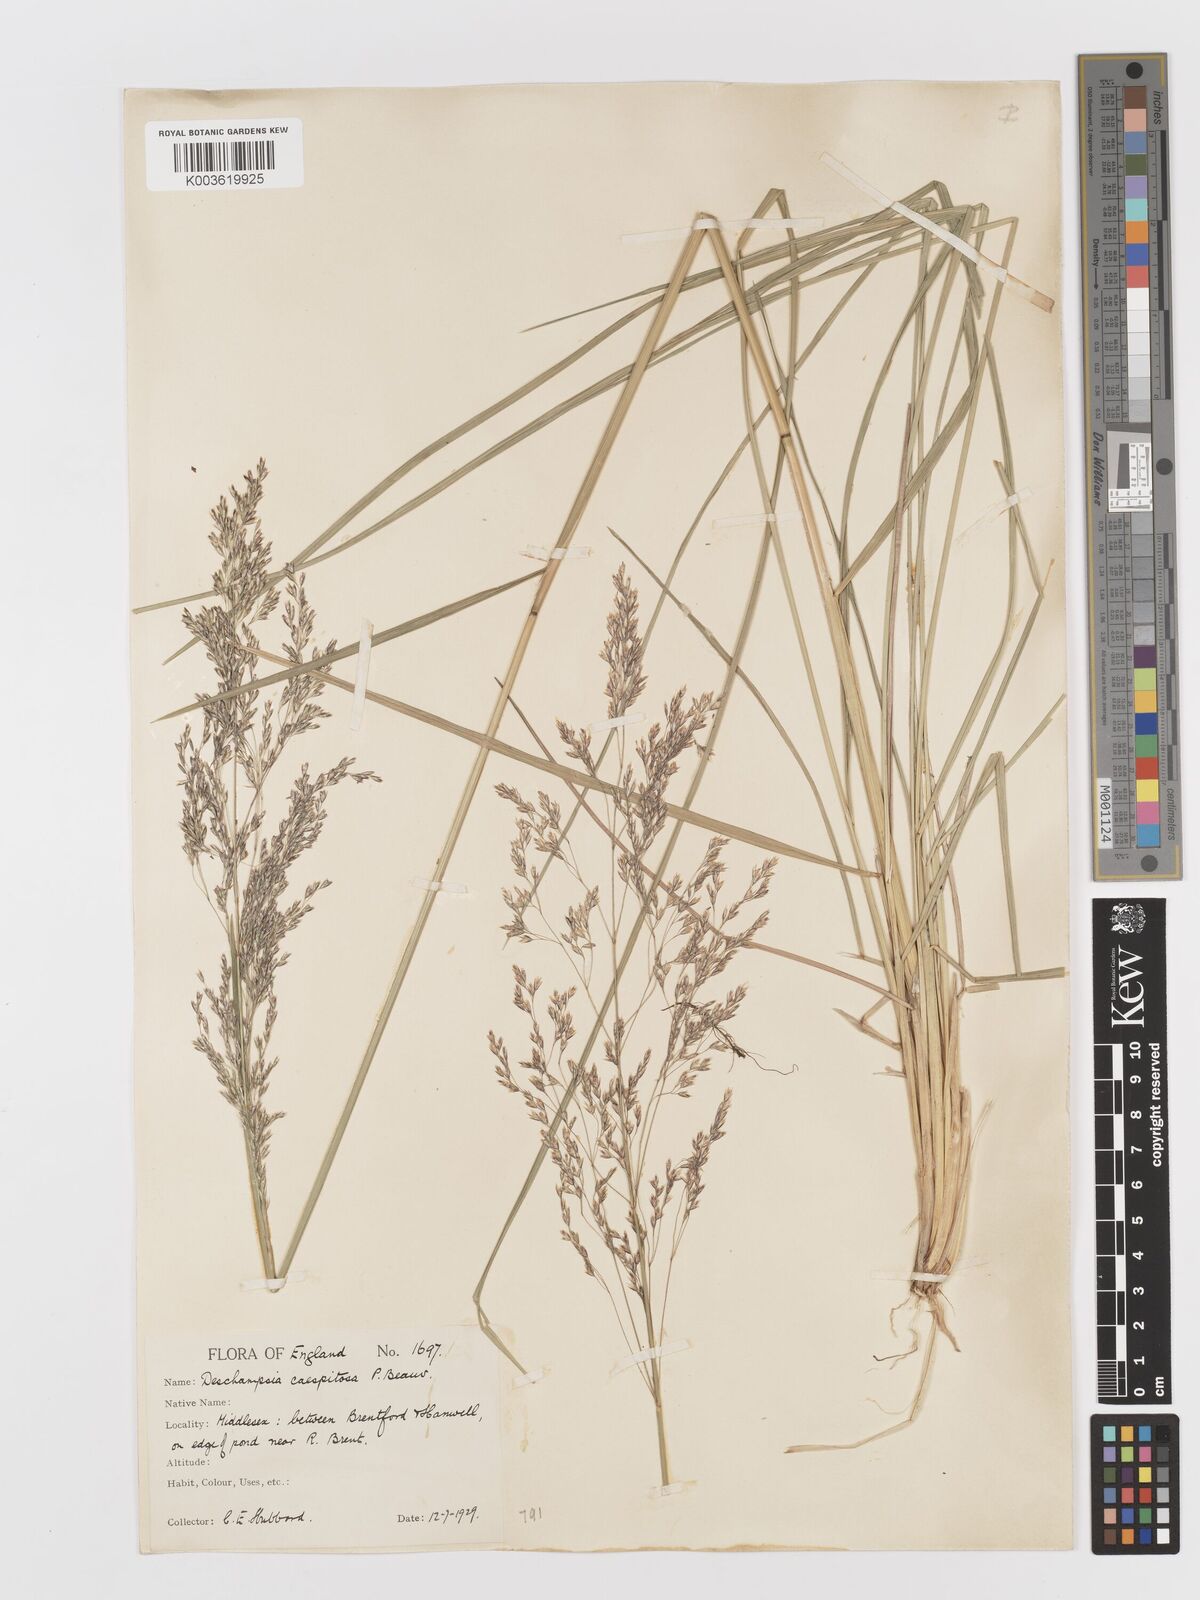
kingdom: Plantae
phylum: Tracheophyta
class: Liliopsida
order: Poales
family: Poaceae
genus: Deschampsia
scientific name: Deschampsia
